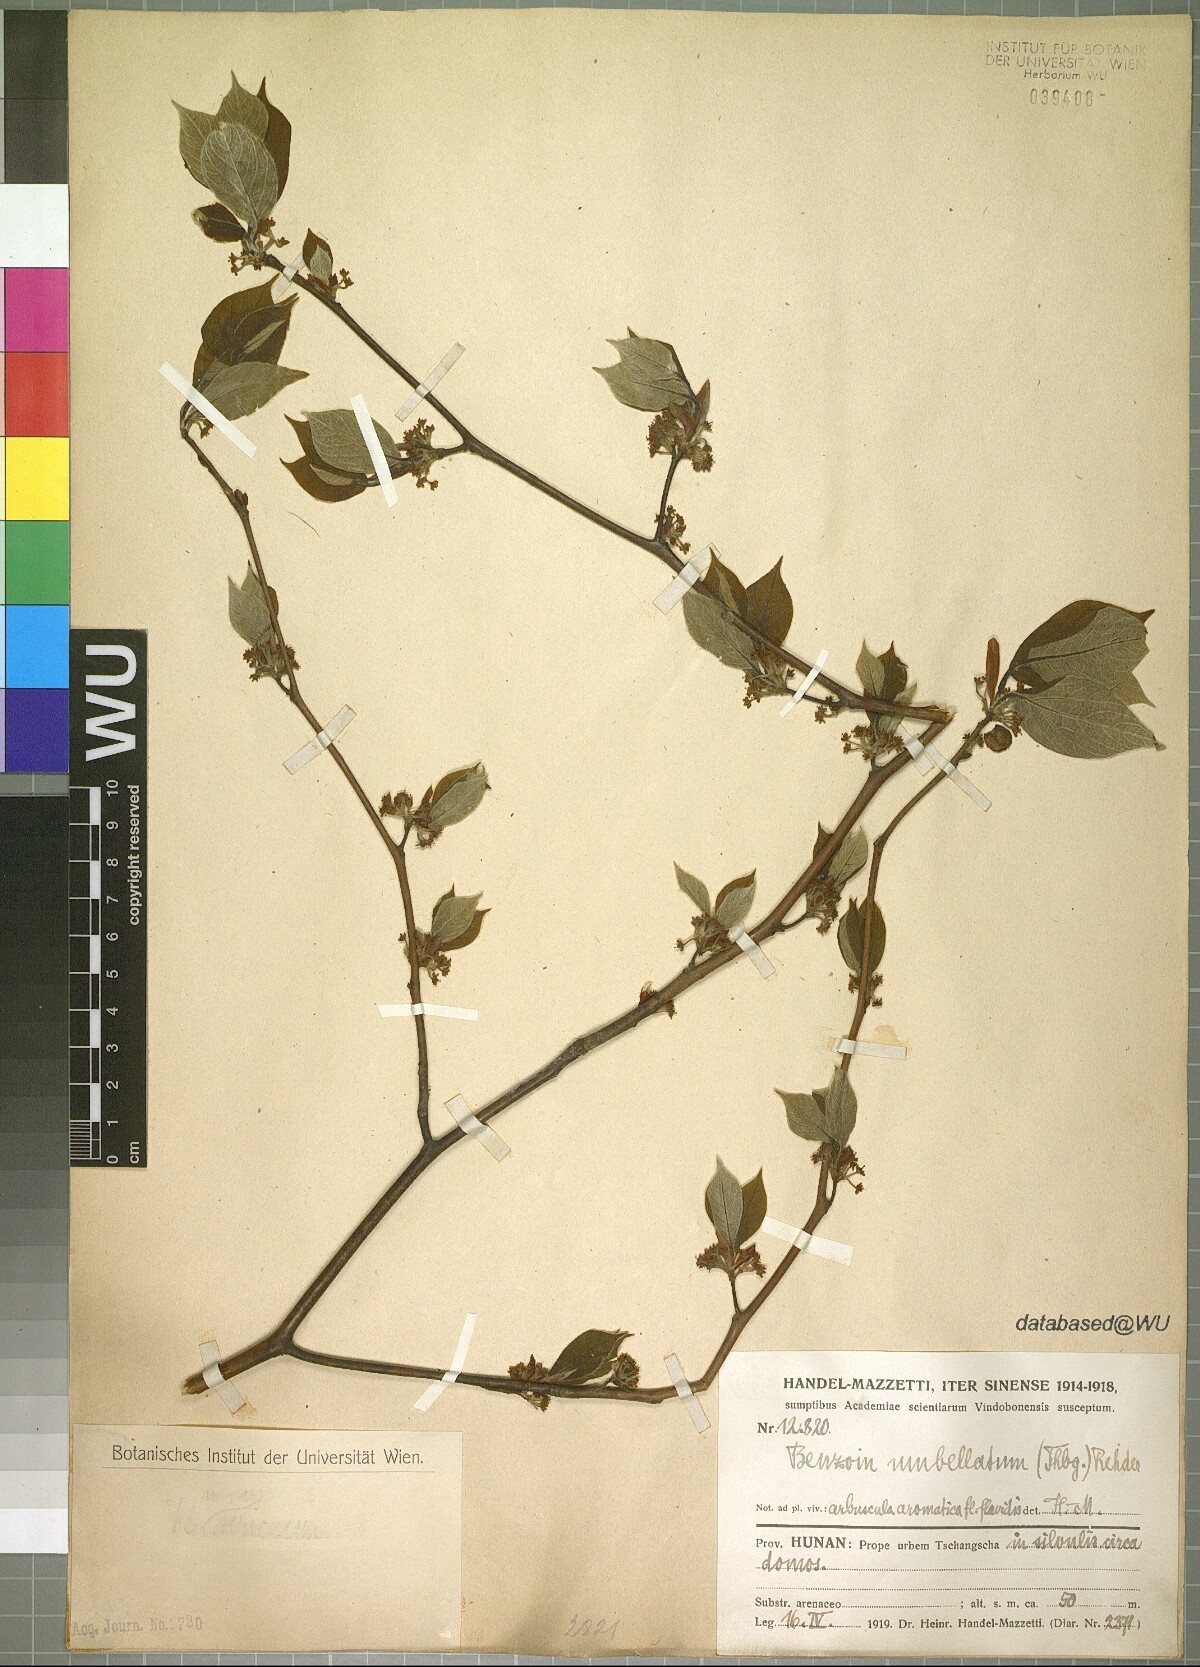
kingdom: Plantae
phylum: Tracheophyta
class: Magnoliopsida
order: Laurales
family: Lauraceae
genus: Lindera
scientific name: Lindera umbellata
